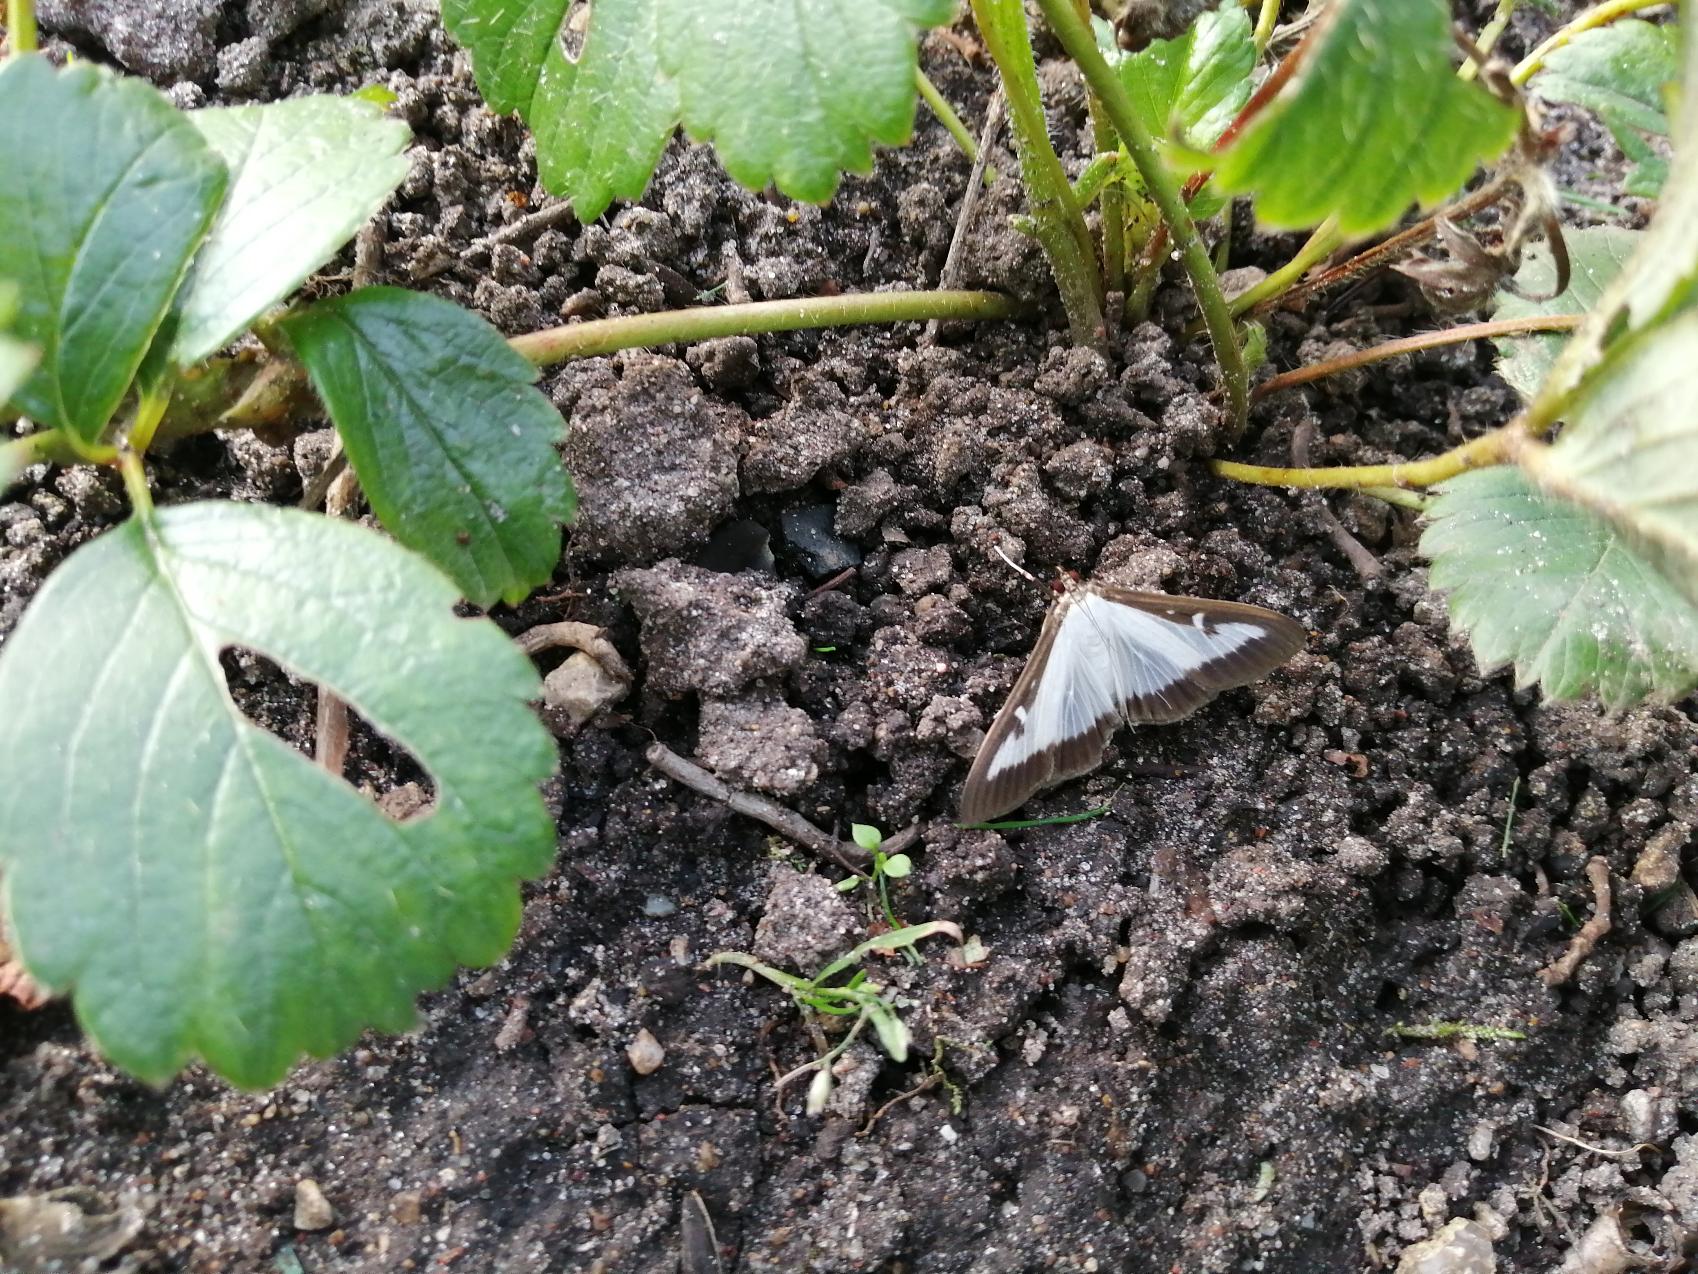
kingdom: Animalia
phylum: Arthropoda
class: Insecta
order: Lepidoptera
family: Crambidae
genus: Cydalima
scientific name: Cydalima perspectalis
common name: Buksbomhalvmøl
